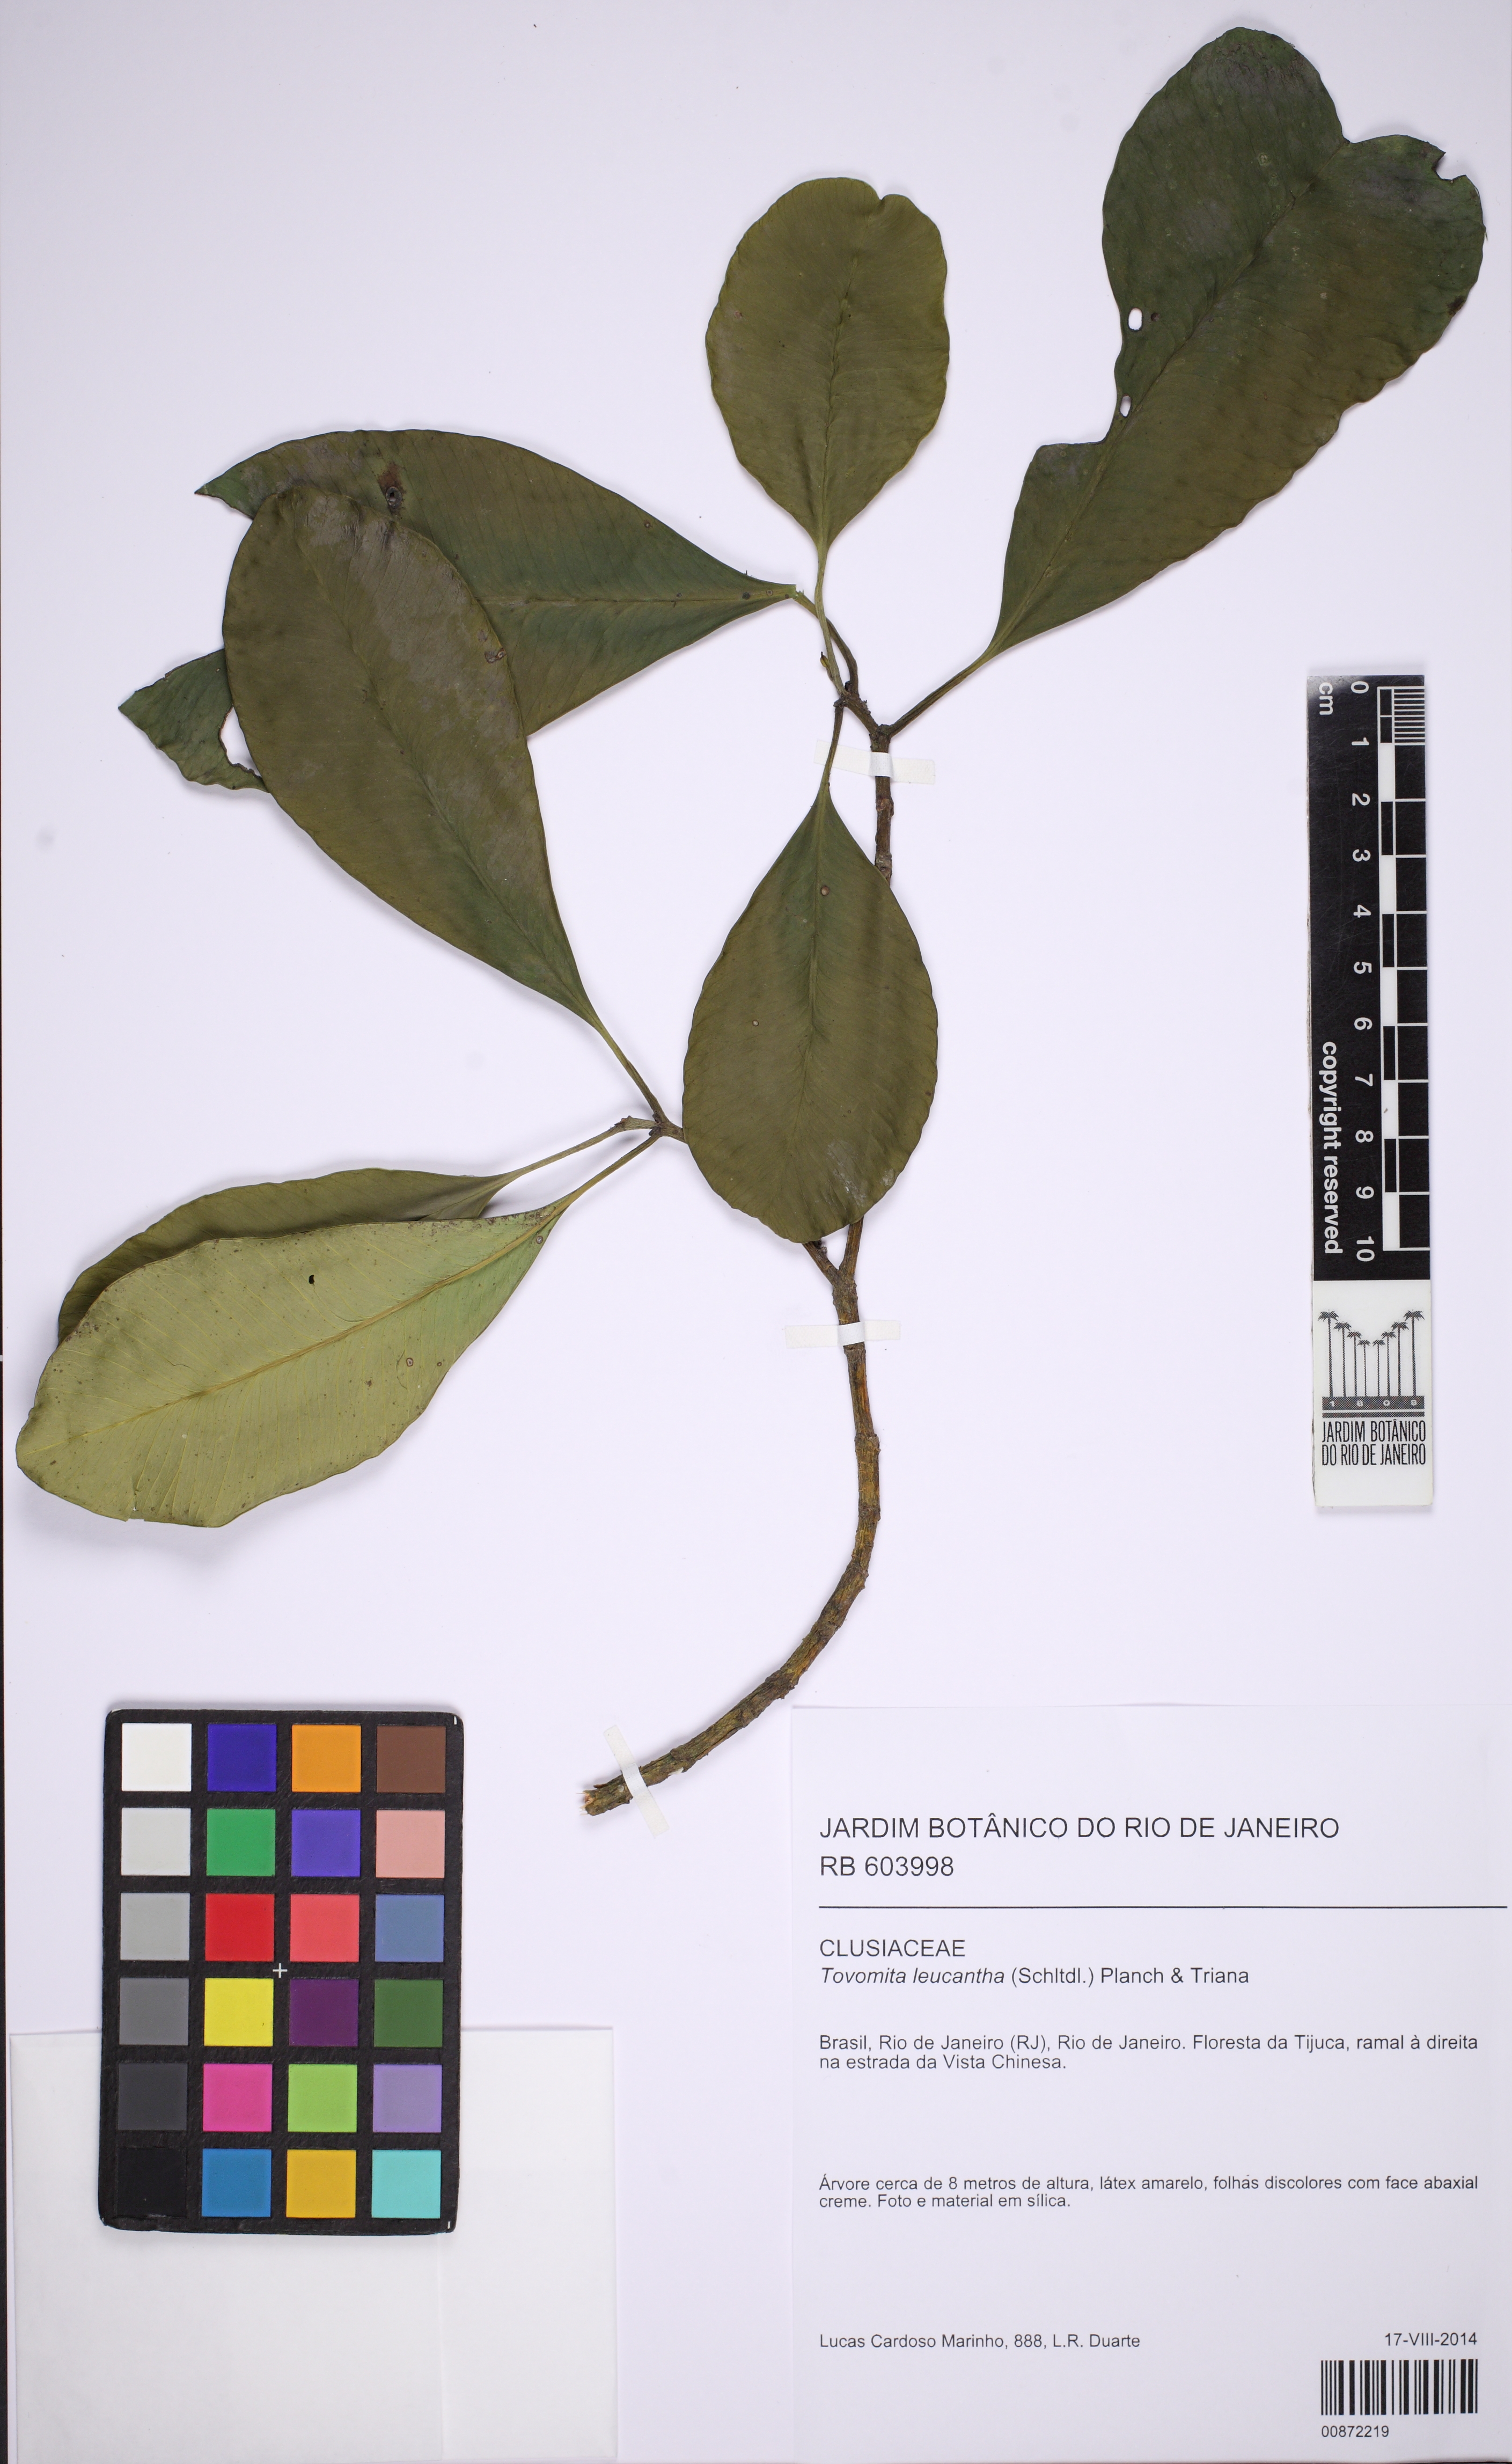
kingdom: Plantae
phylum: Tracheophyta
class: Magnoliopsida
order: Malpighiales
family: Clusiaceae
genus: Tovomita
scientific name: Tovomita leucantha
